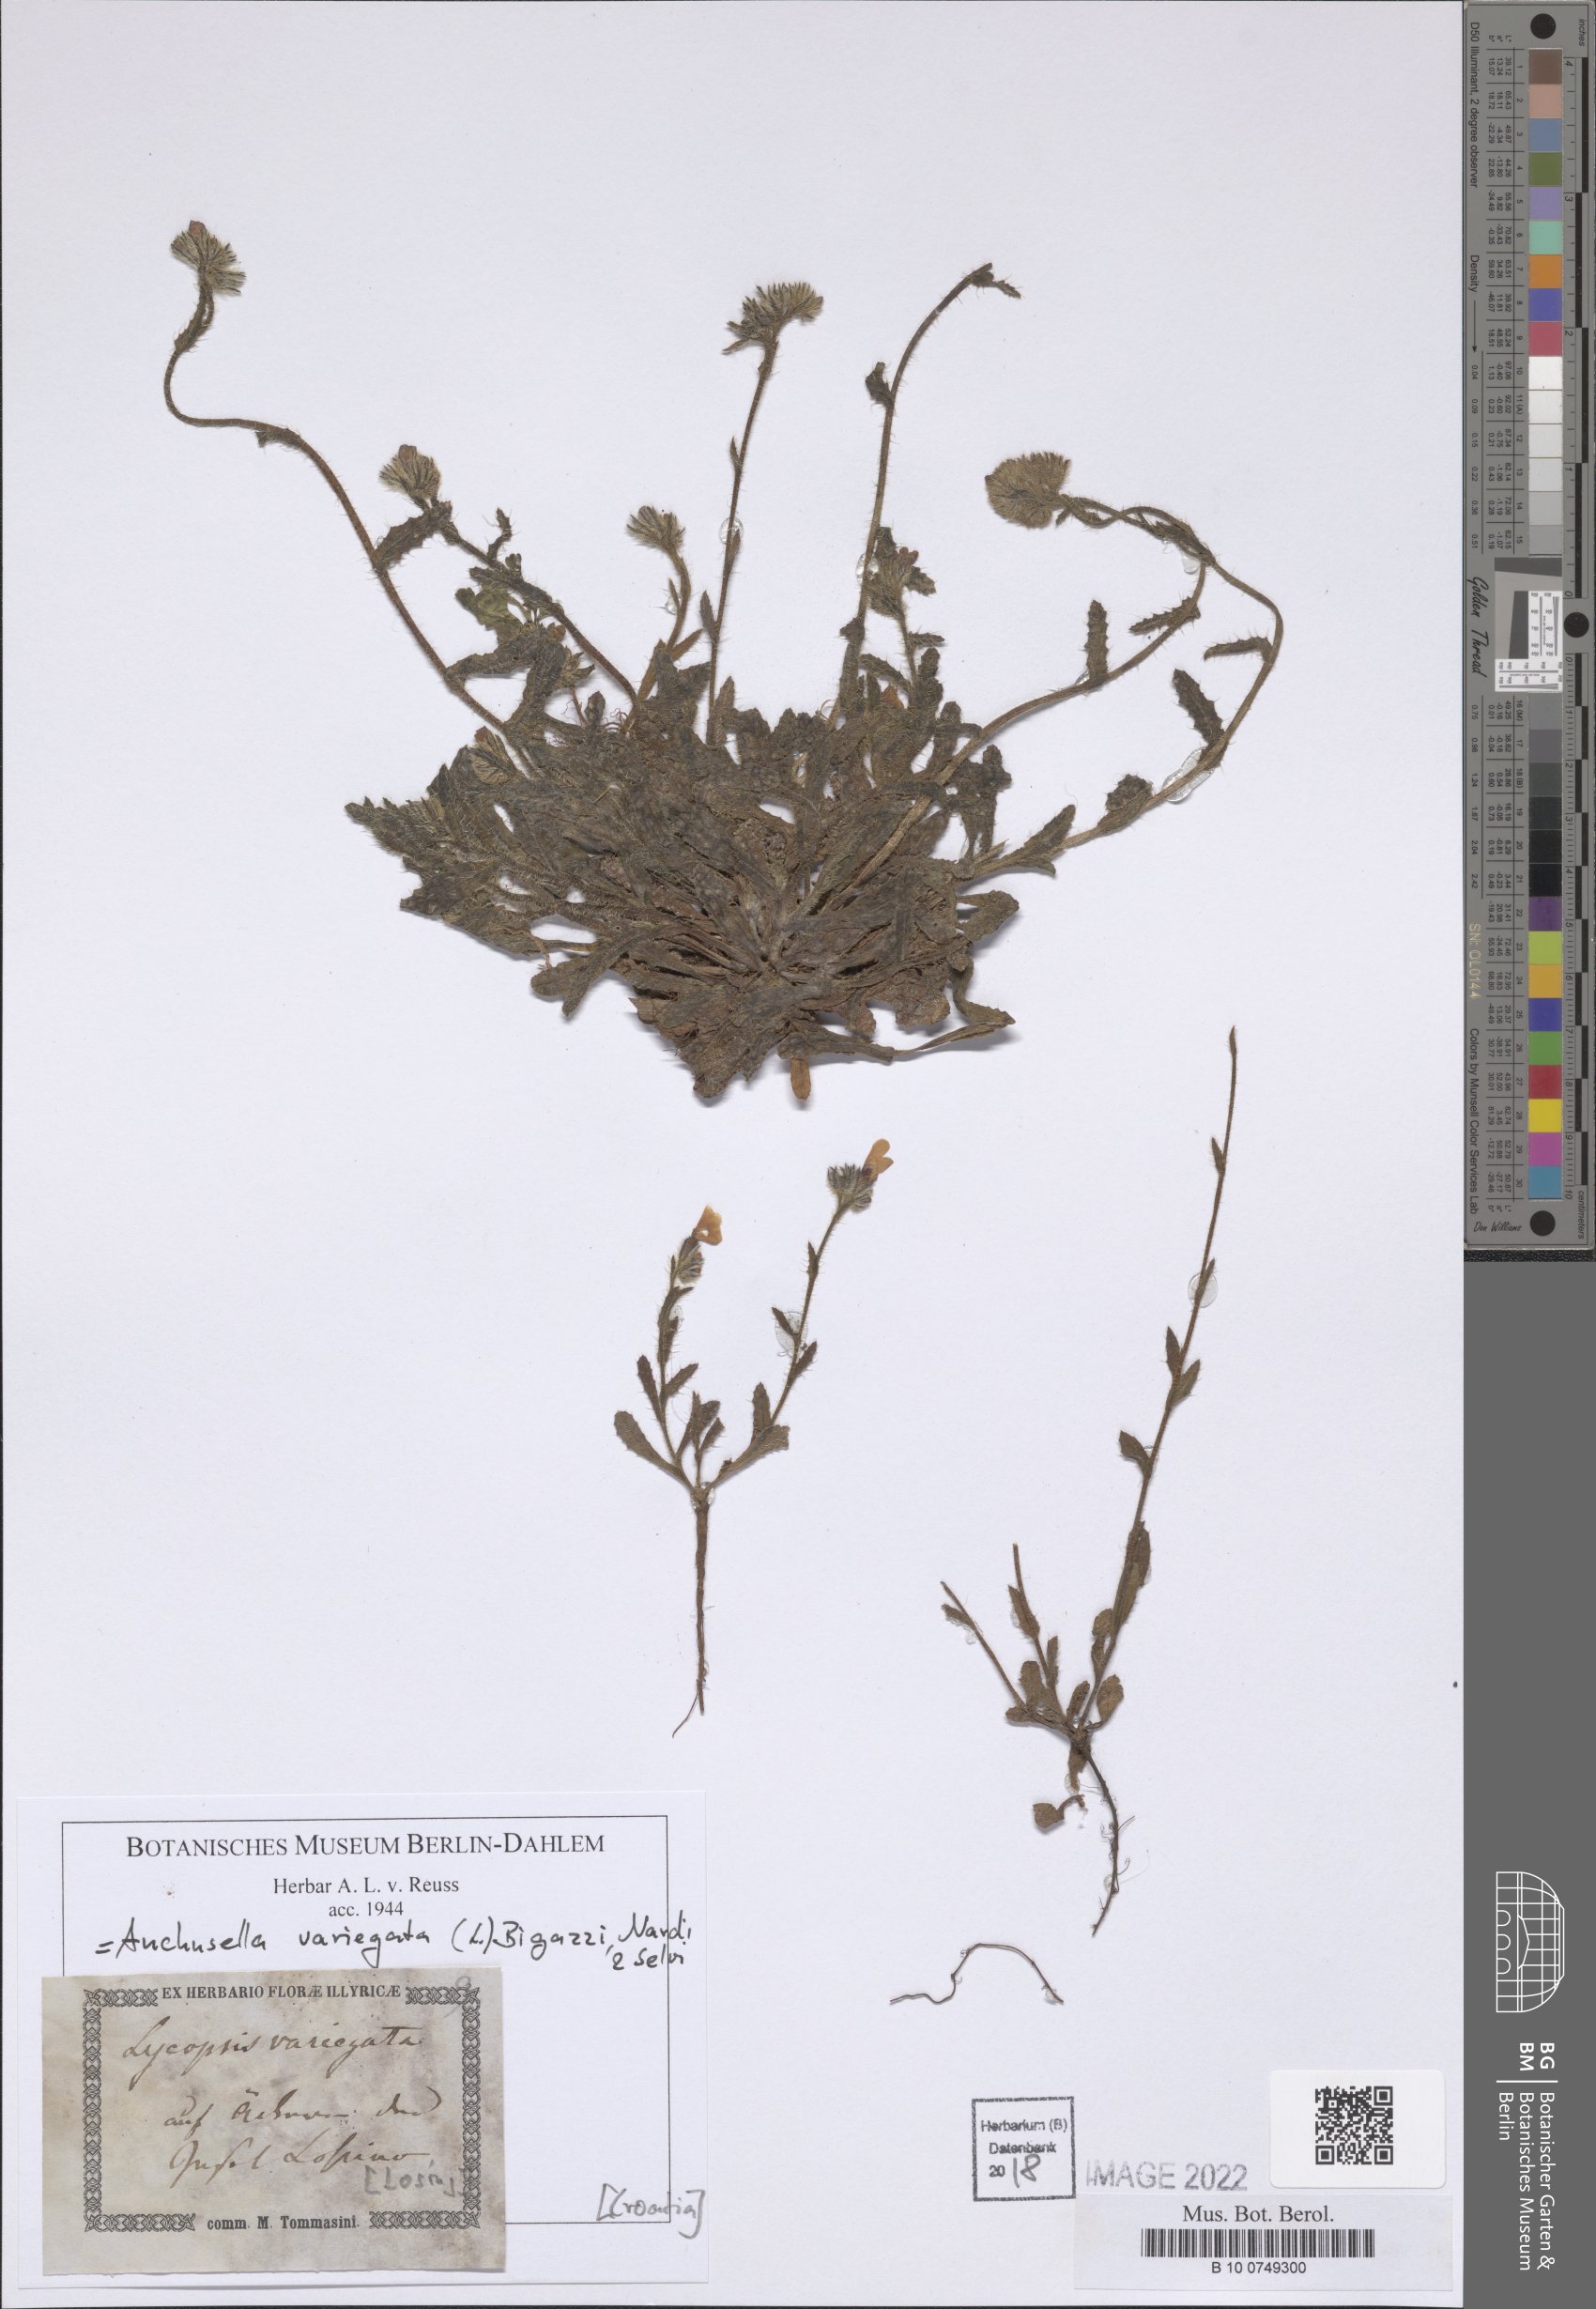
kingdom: Plantae
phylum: Tracheophyta
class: Magnoliopsida
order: Boraginales
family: Boraginaceae
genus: Anchusella
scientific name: Anchusella variegata
